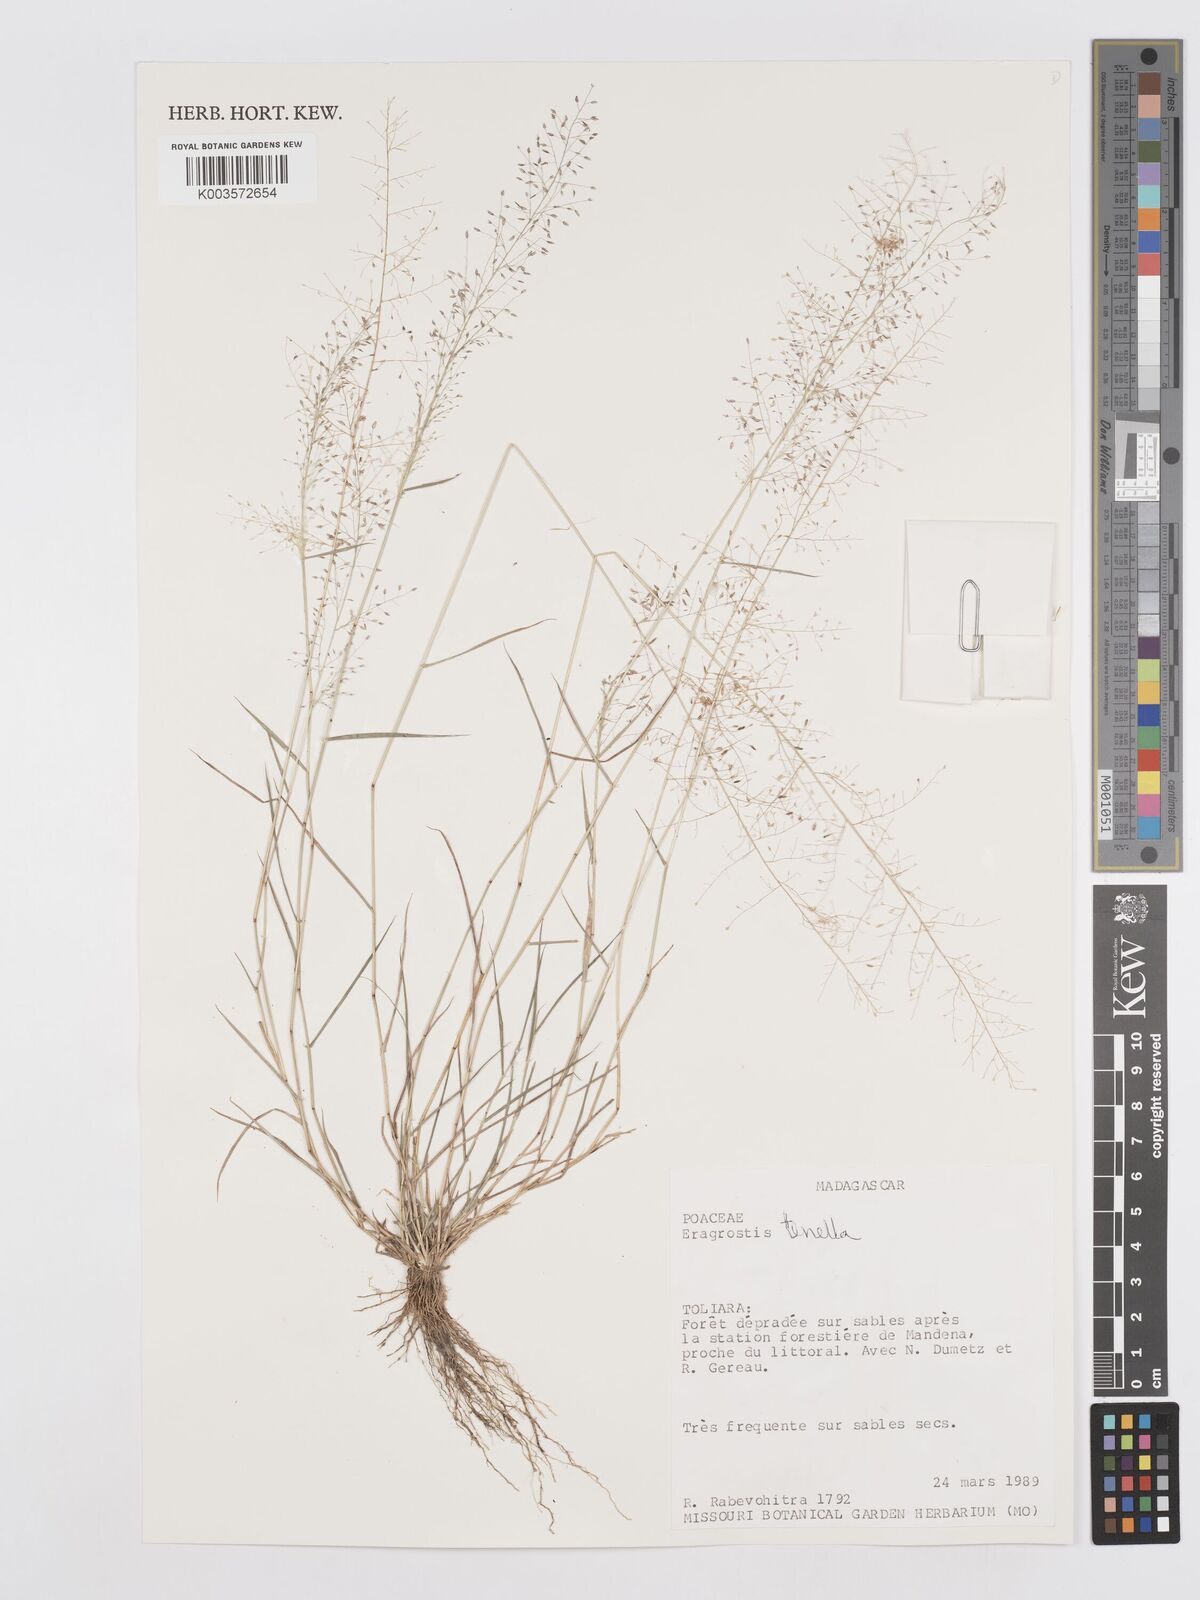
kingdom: Plantae
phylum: Tracheophyta
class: Liliopsida
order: Poales
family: Poaceae
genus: Eragrostis
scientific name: Eragrostis tenella
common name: Japanese lovegrass
